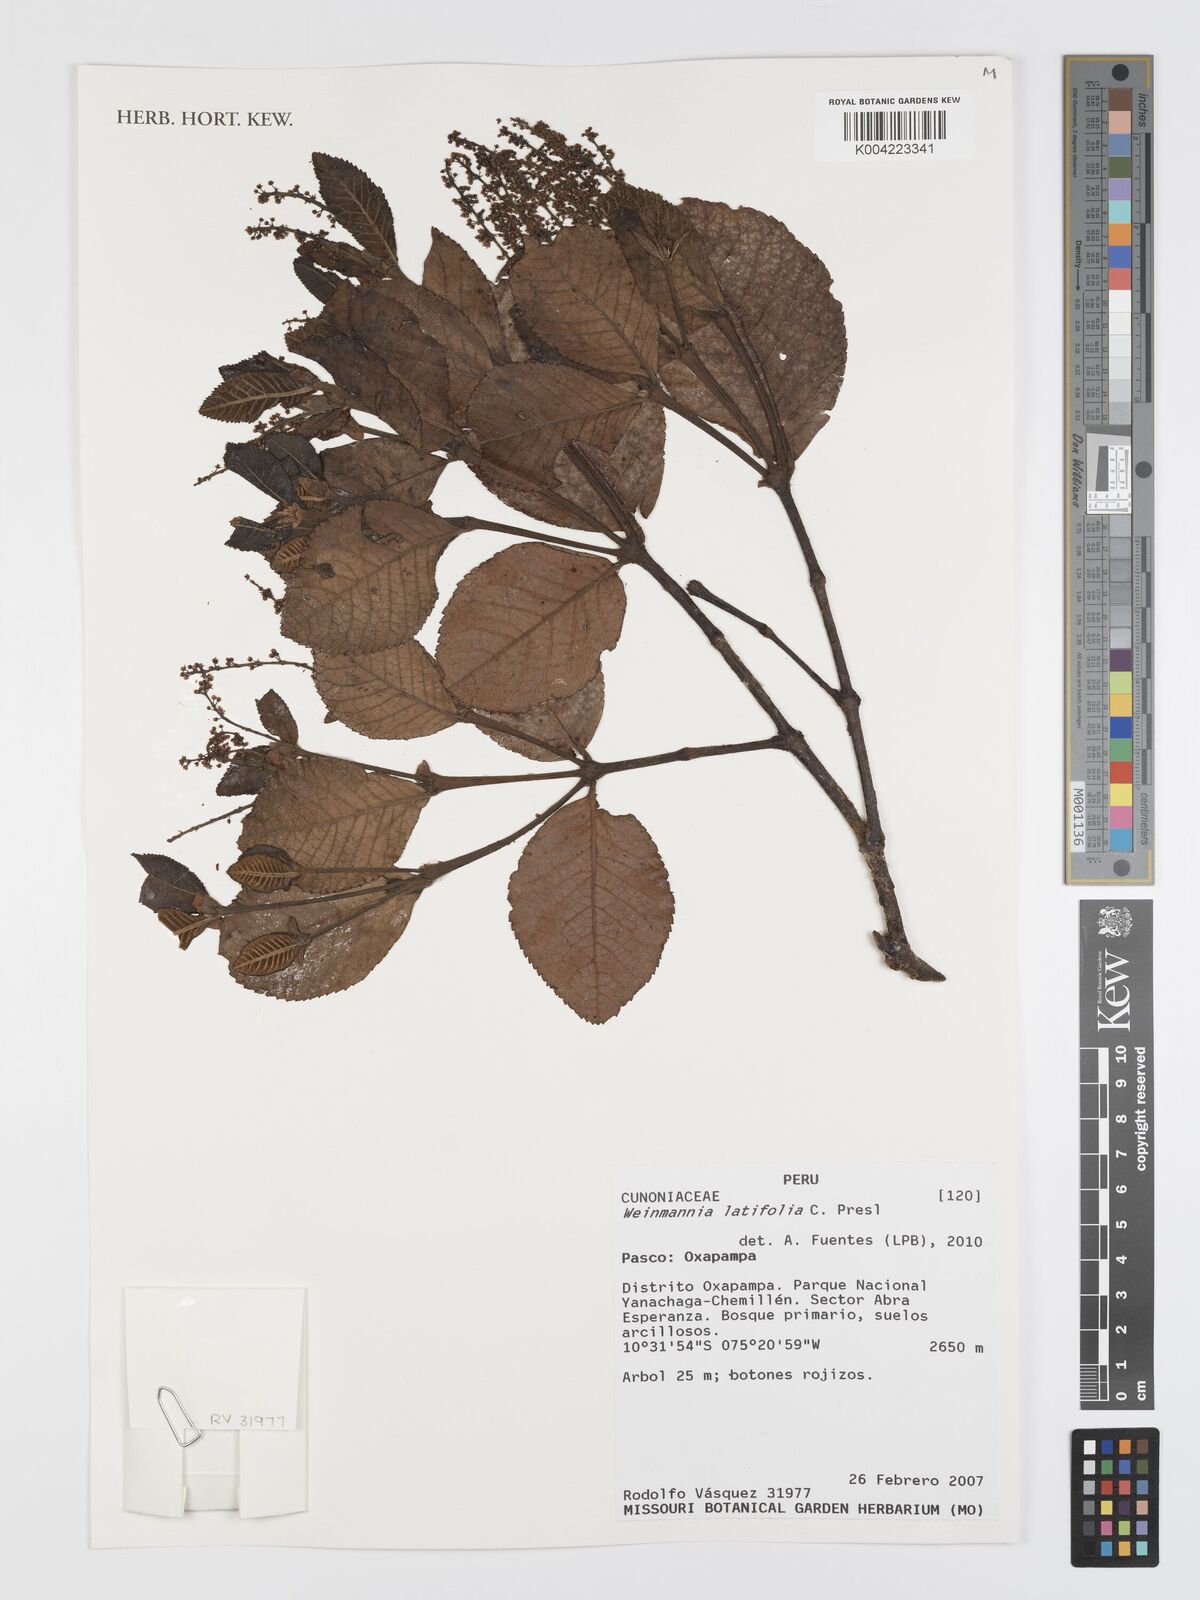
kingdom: Plantae
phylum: Tracheophyta
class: Magnoliopsida
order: Oxalidales
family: Cunoniaceae
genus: Weinmannia
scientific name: Weinmannia latifolia
